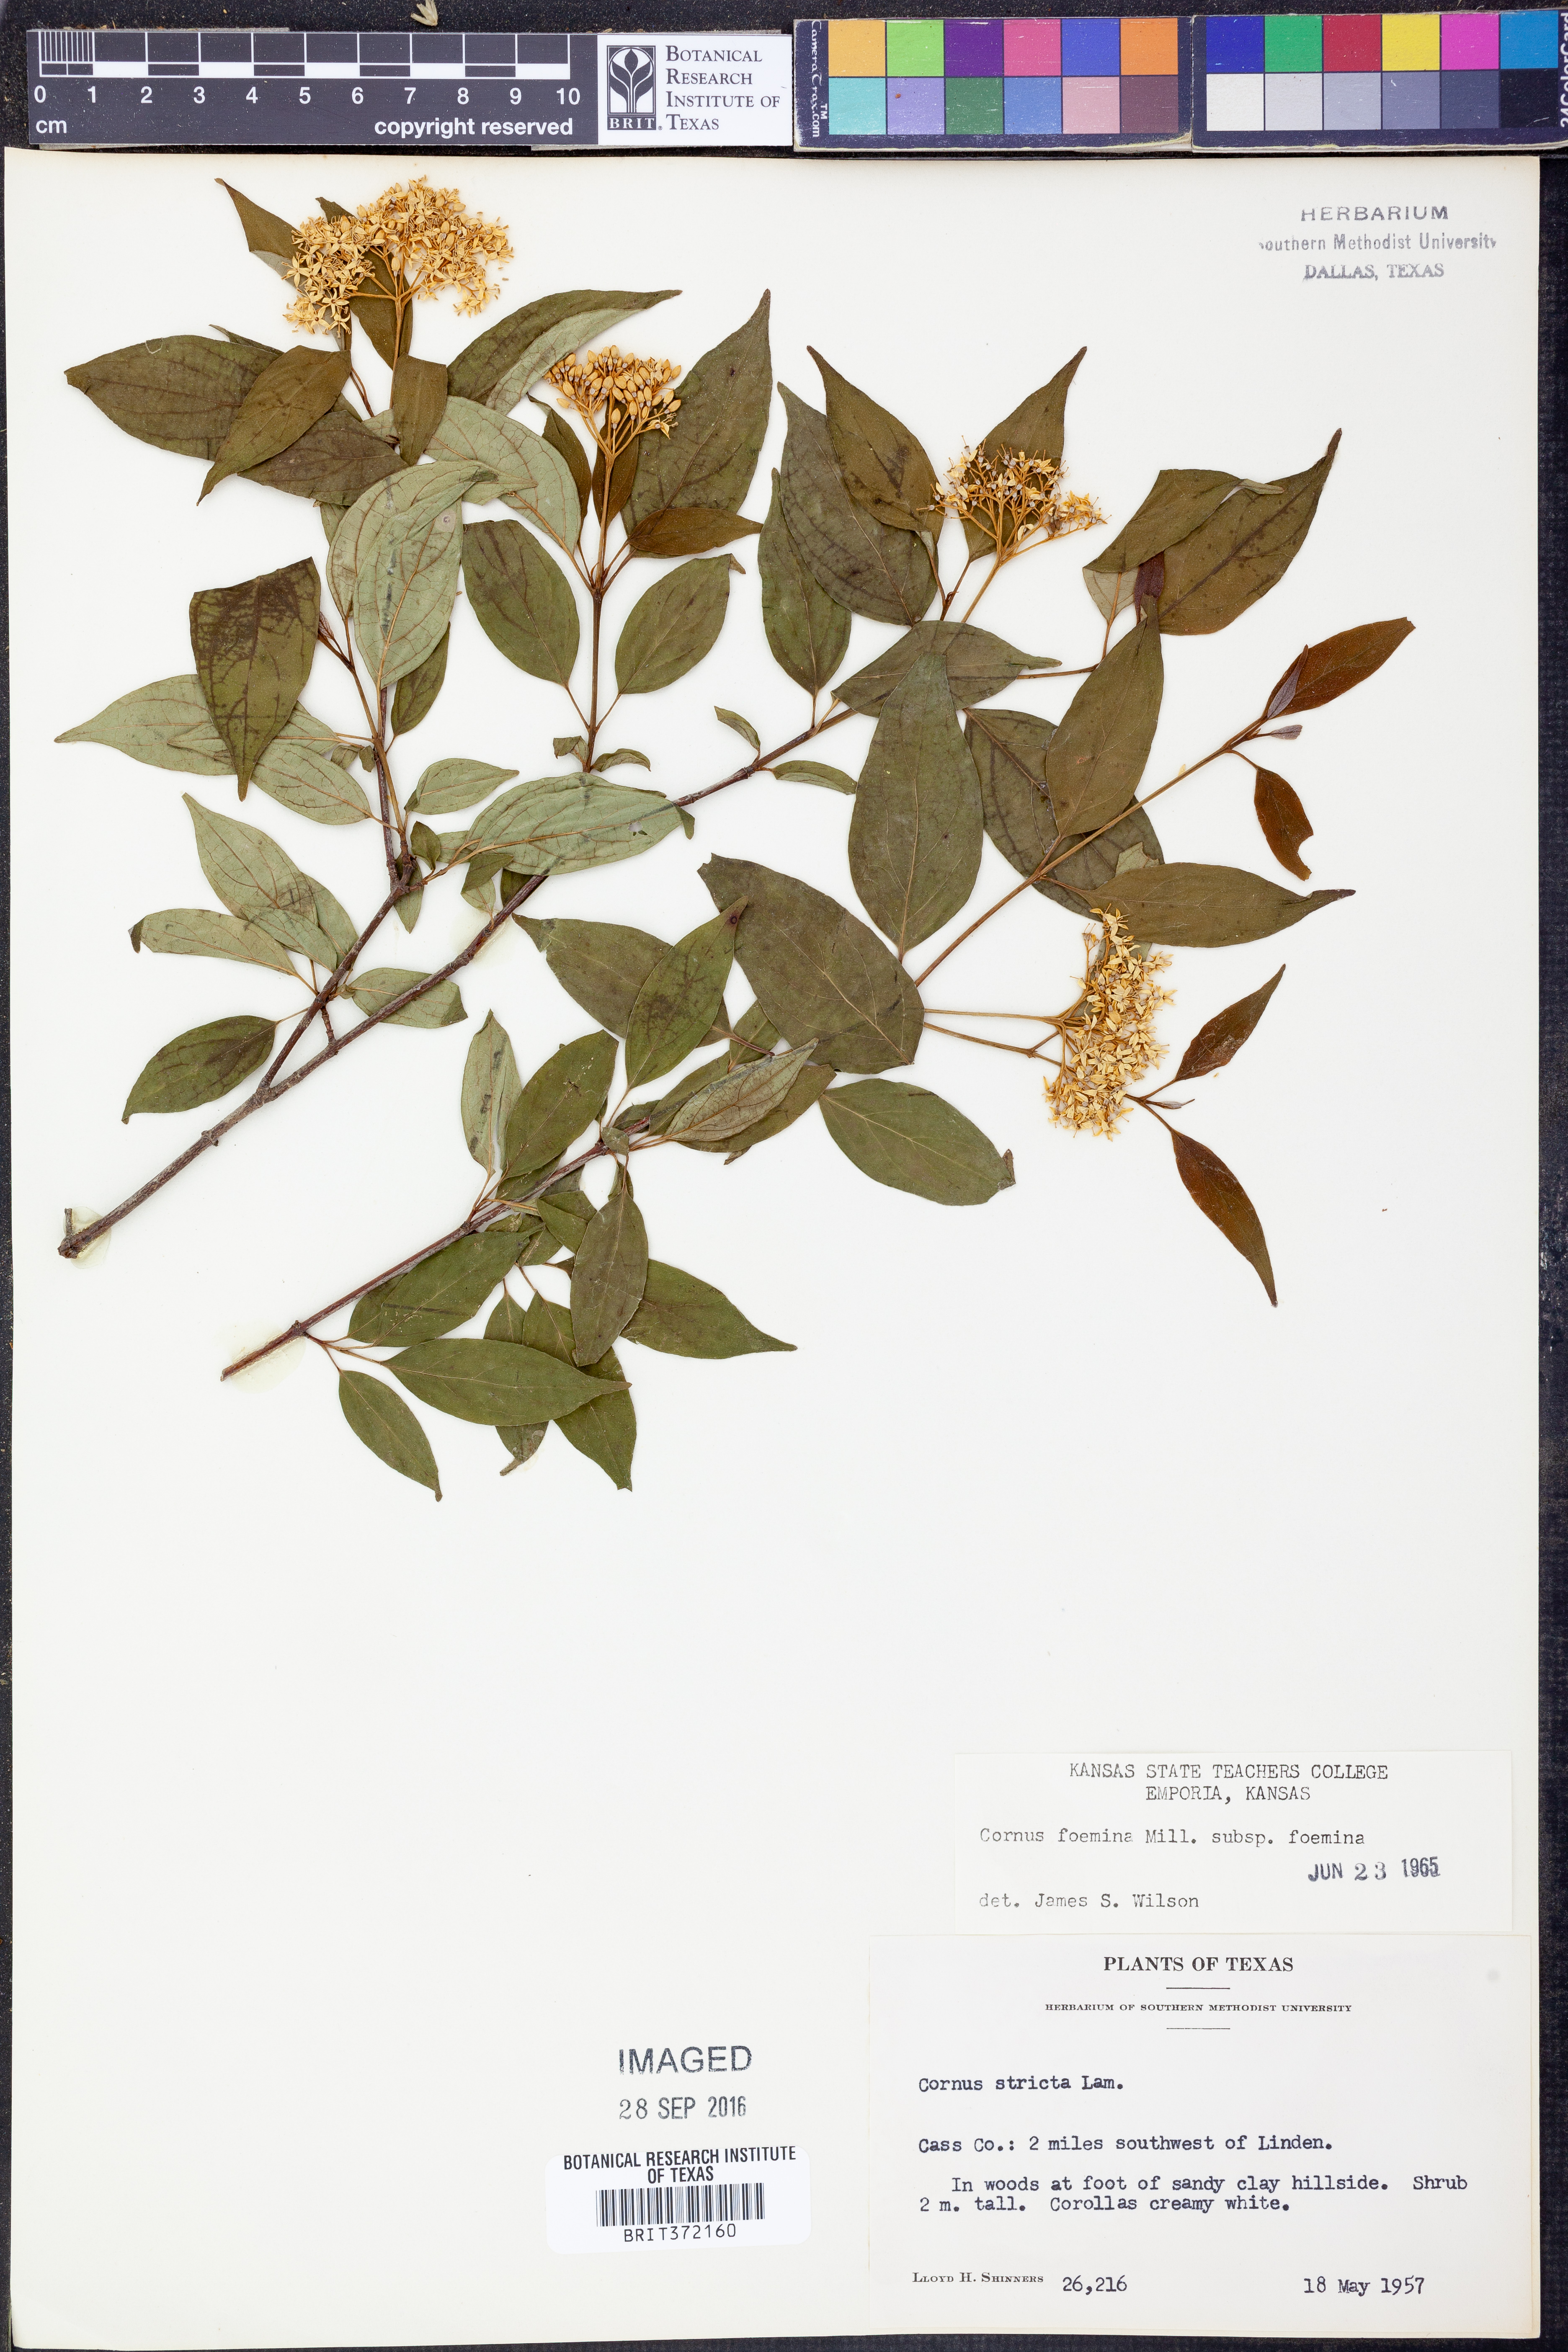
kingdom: Plantae
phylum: Tracheophyta
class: Magnoliopsida
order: Cornales
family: Cornaceae
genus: Cornus
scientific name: Cornus foemina
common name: Swamp dogwood
